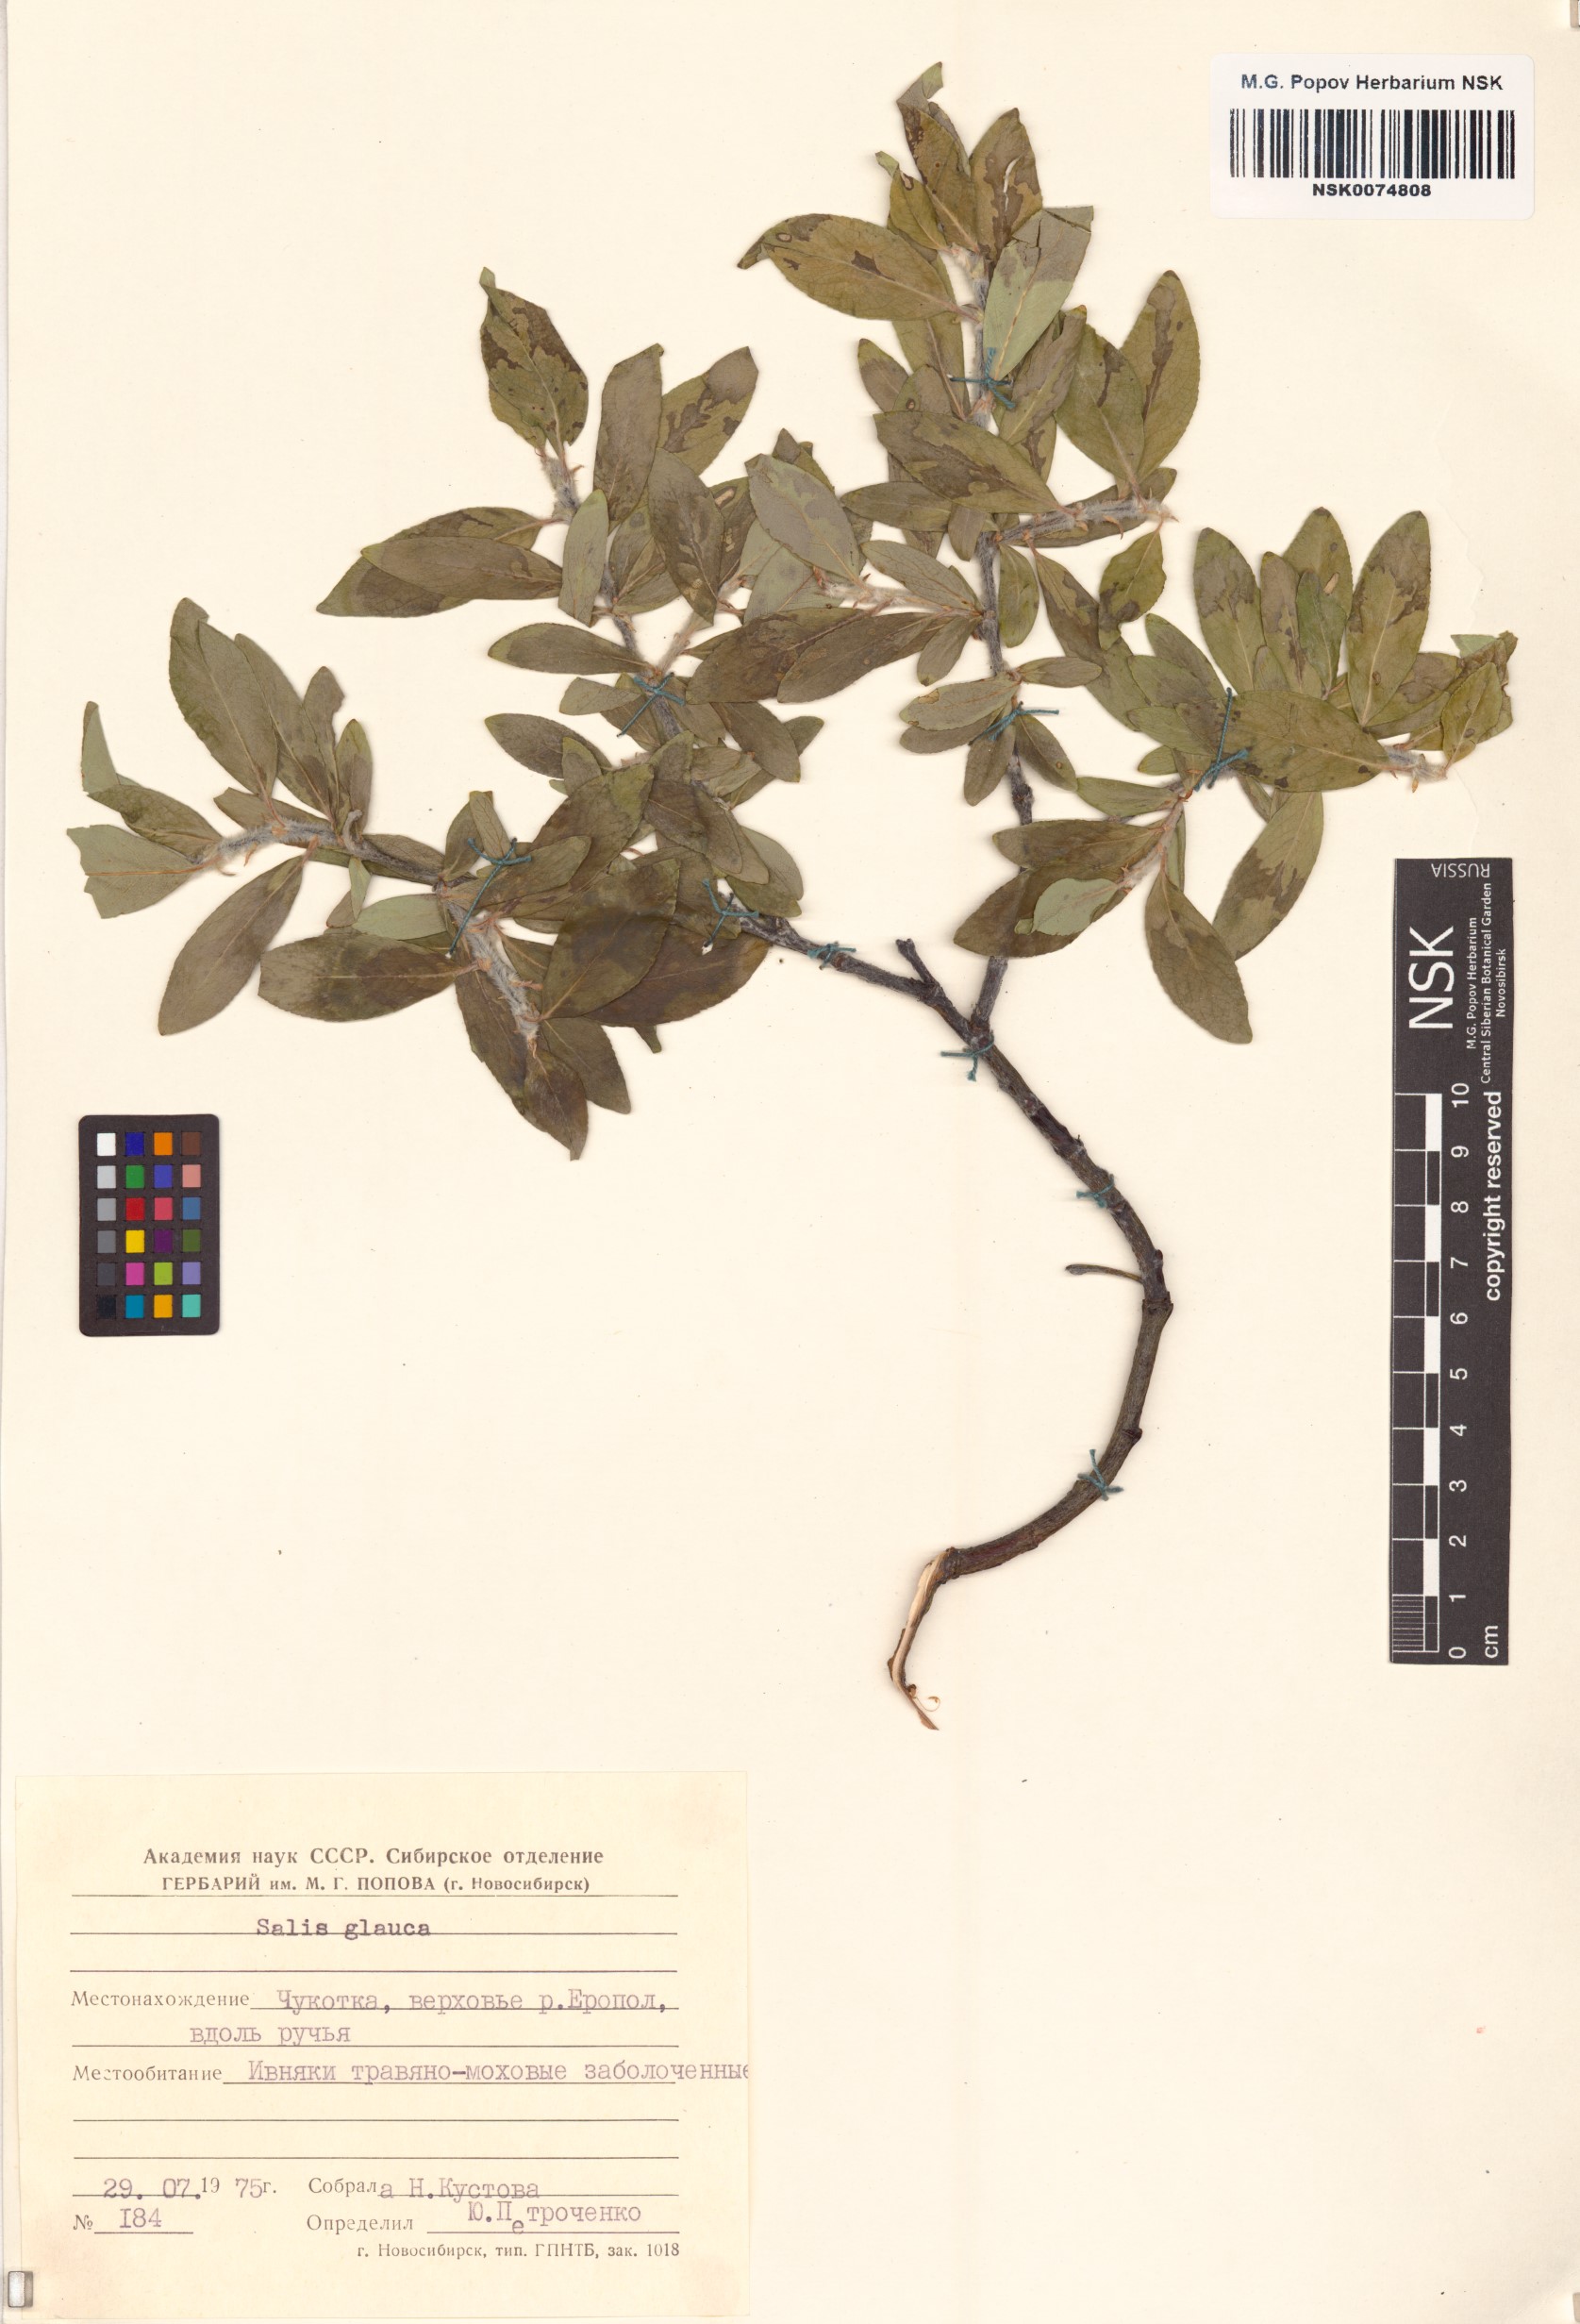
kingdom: Plantae
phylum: Tracheophyta
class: Magnoliopsida
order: Malpighiales
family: Salicaceae
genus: Salix
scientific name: Salix glauca
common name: Glaucous willow
